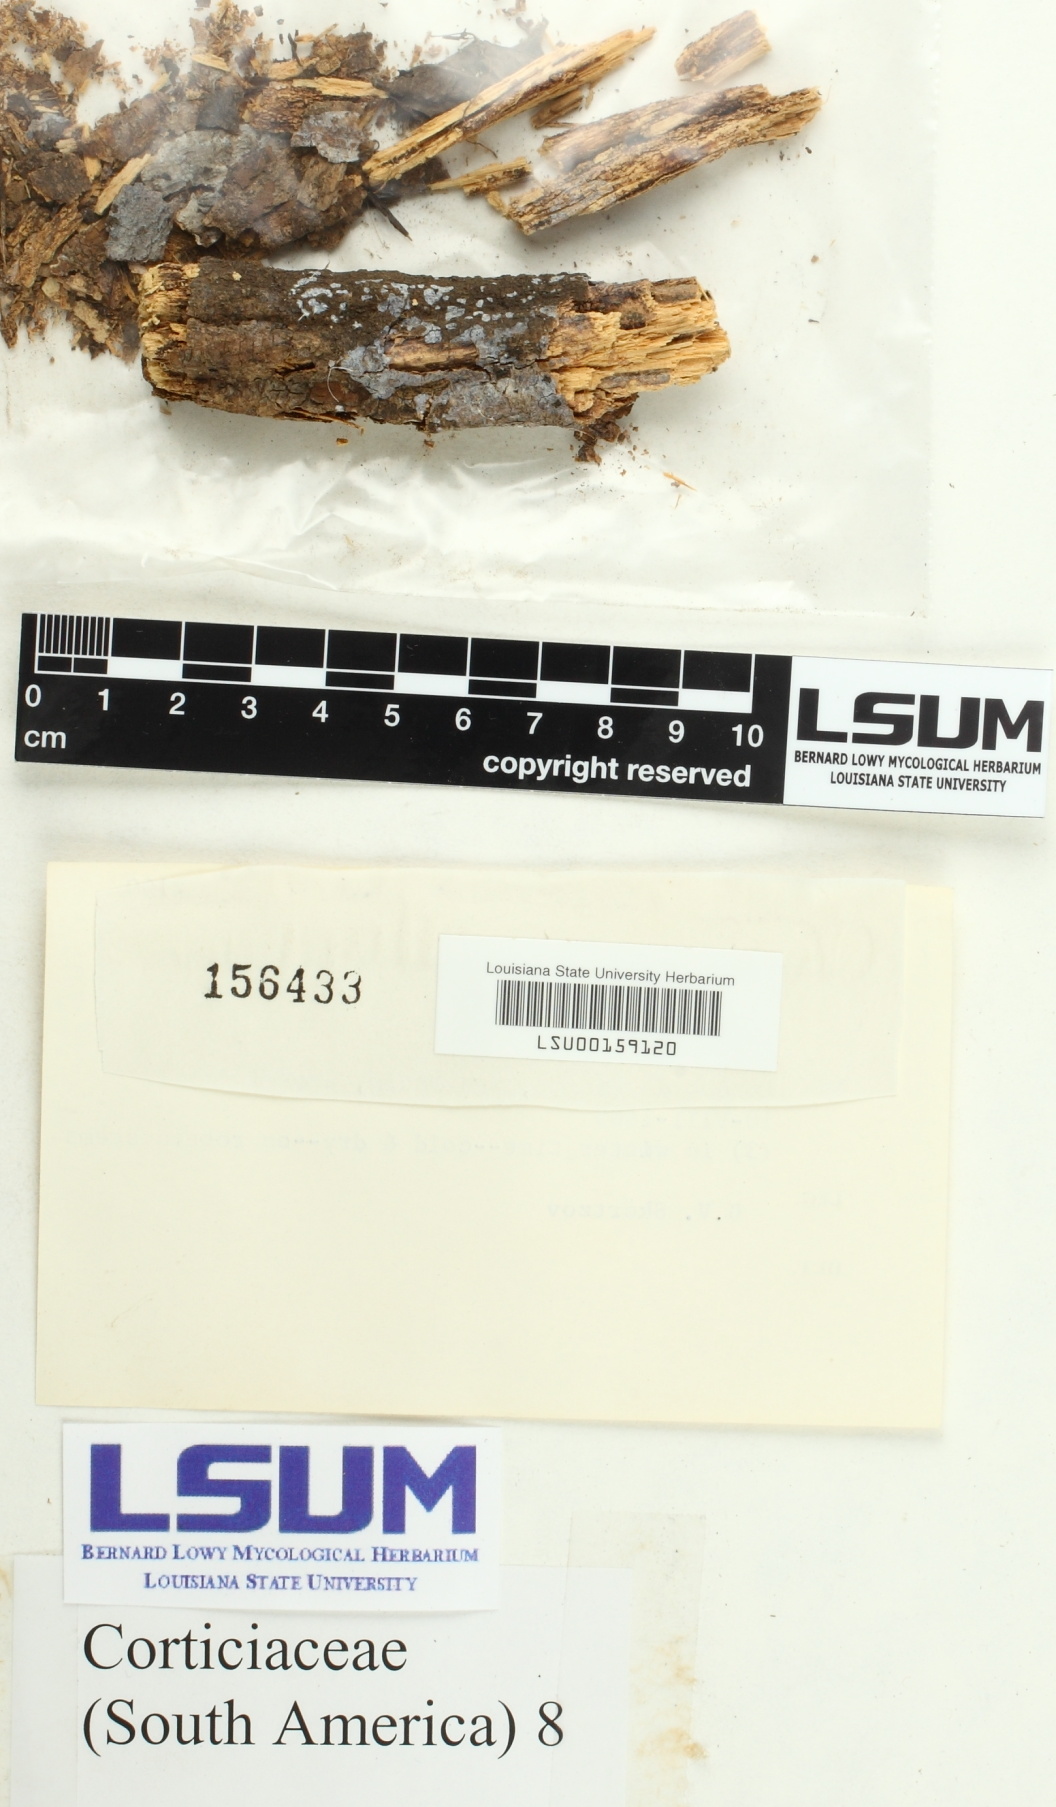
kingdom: Fungi
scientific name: Fungi
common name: Fungi
